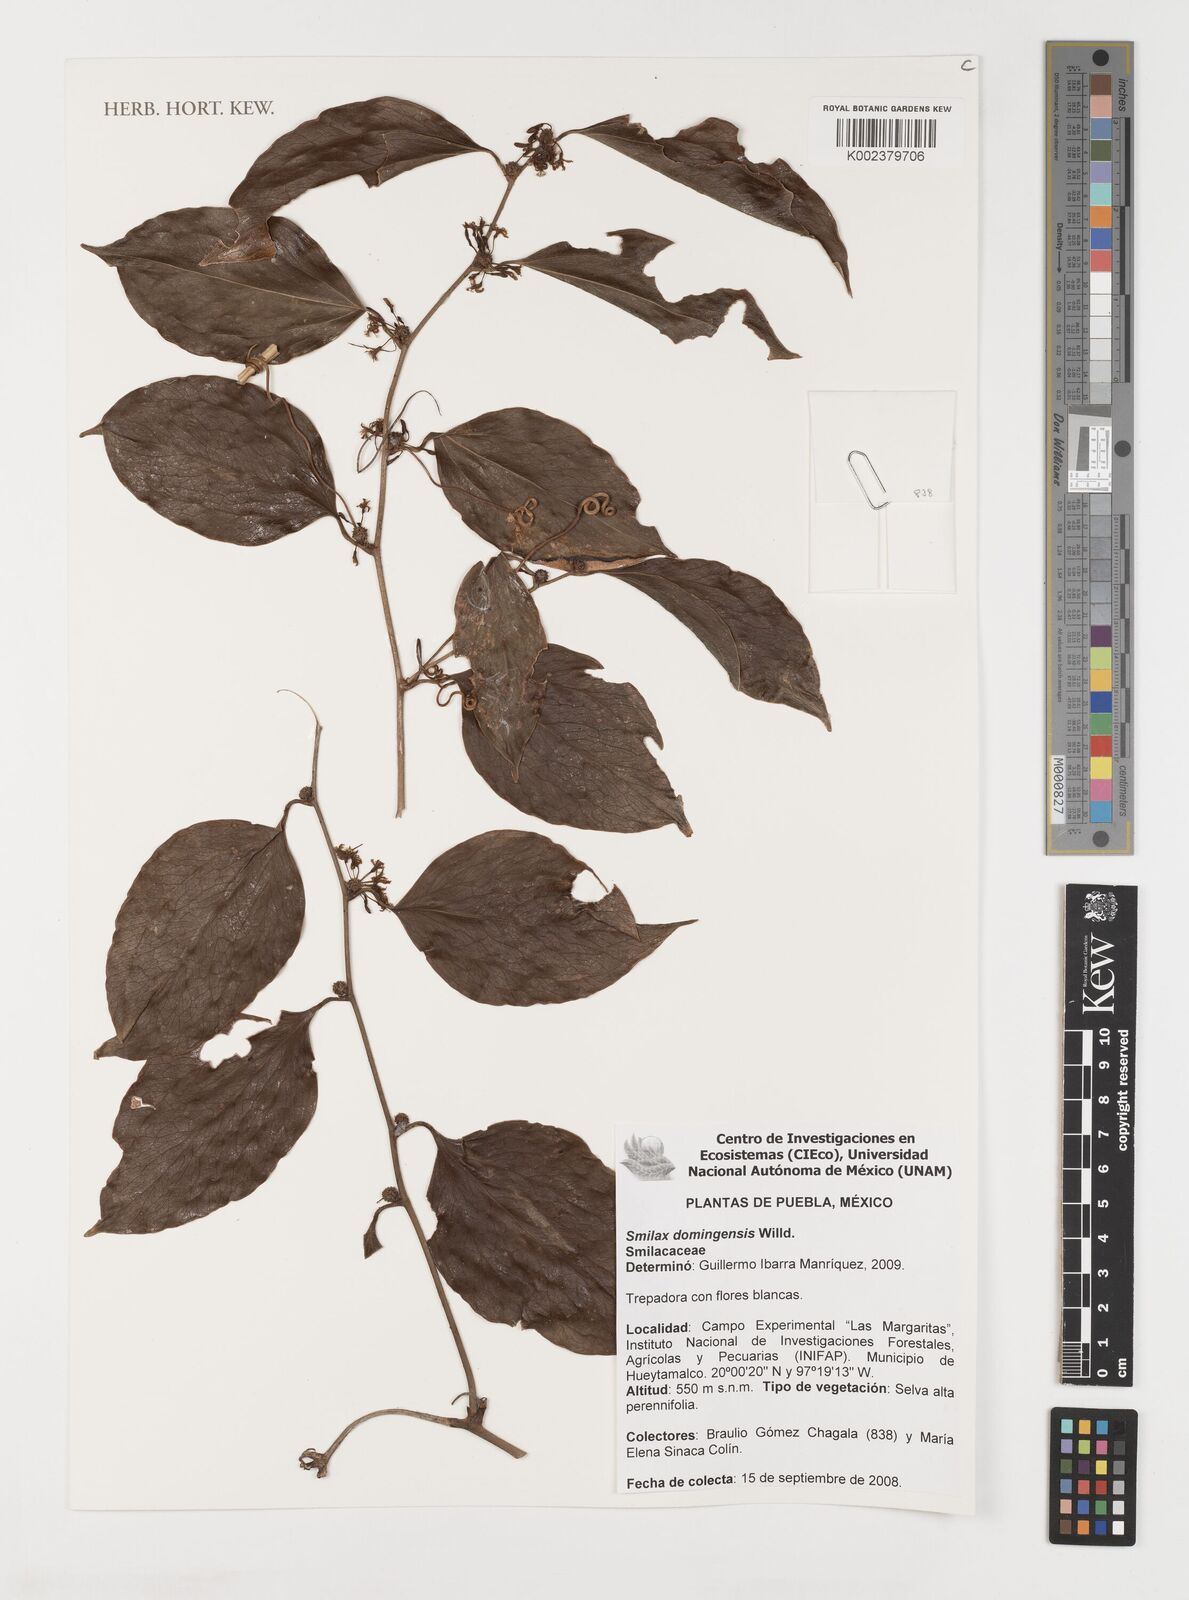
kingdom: Plantae
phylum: Tracheophyta
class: Liliopsida
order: Liliales
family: Smilacaceae
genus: Smilax
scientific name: Smilax domingensis
